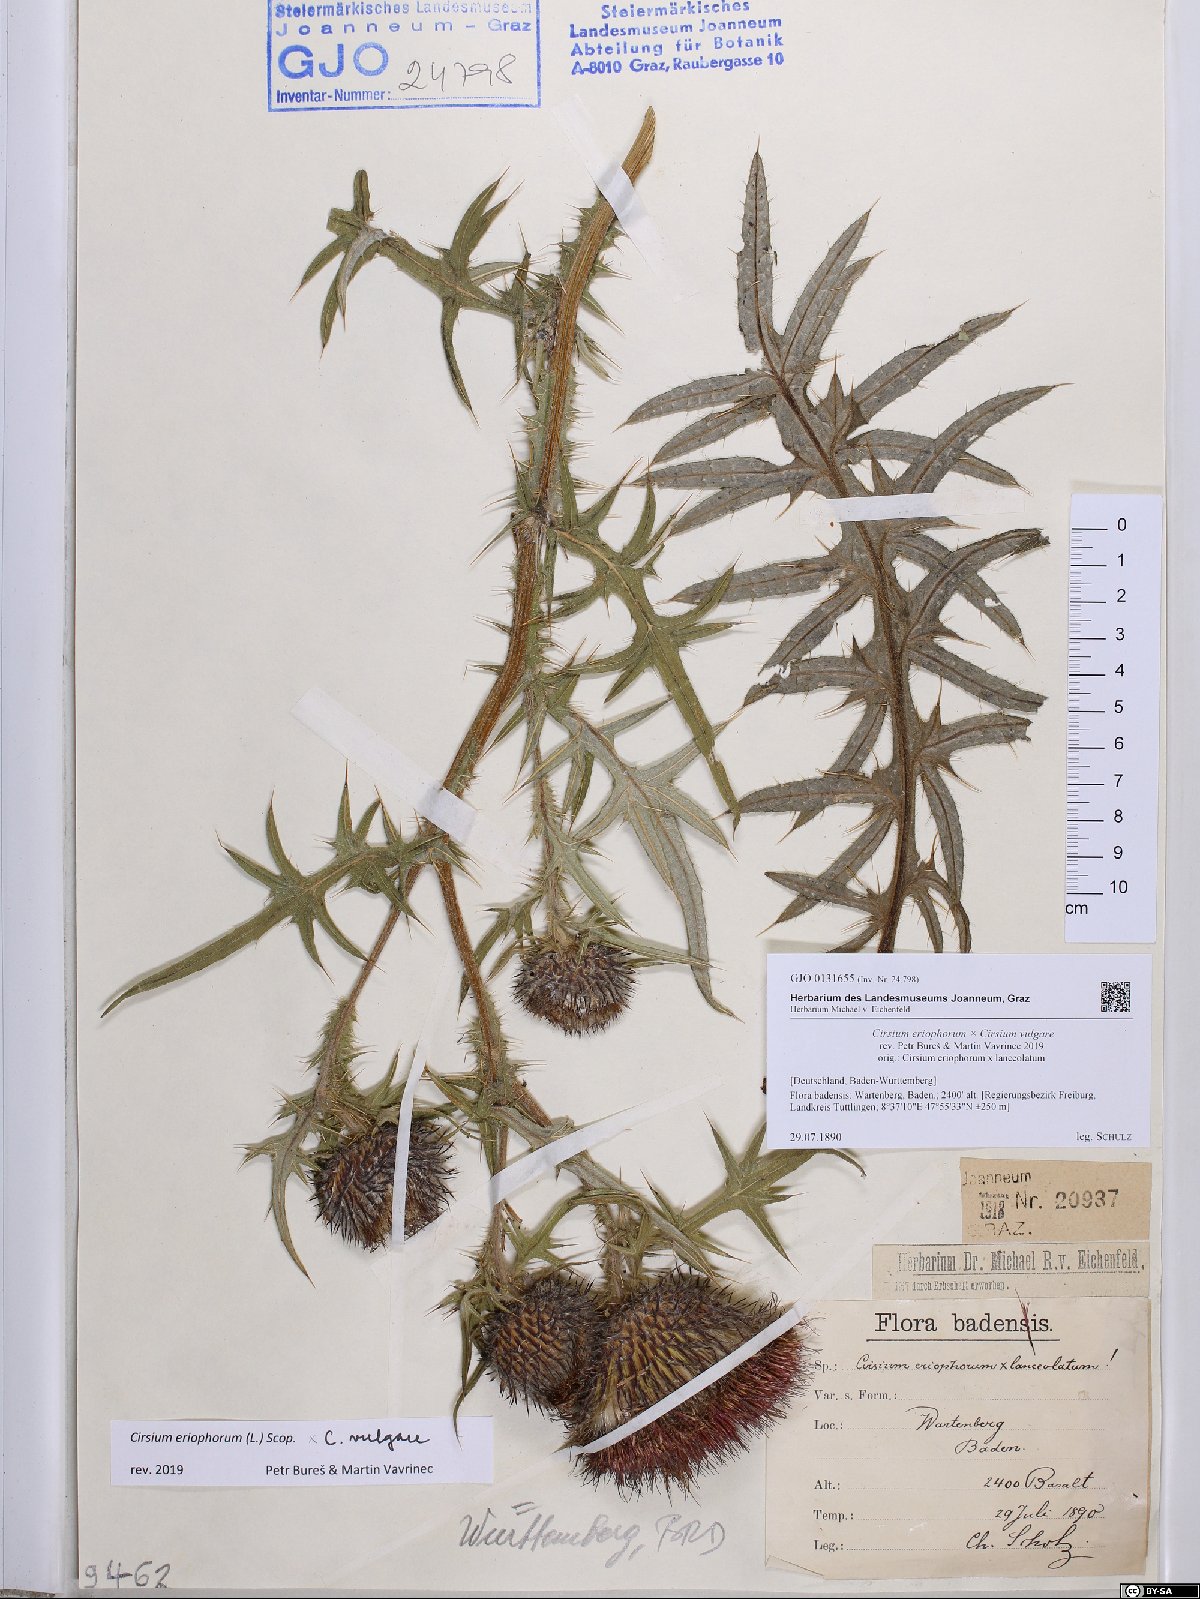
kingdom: Plantae
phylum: Tracheophyta
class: Magnoliopsida
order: Asterales
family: Asteraceae
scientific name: Asteraceae
